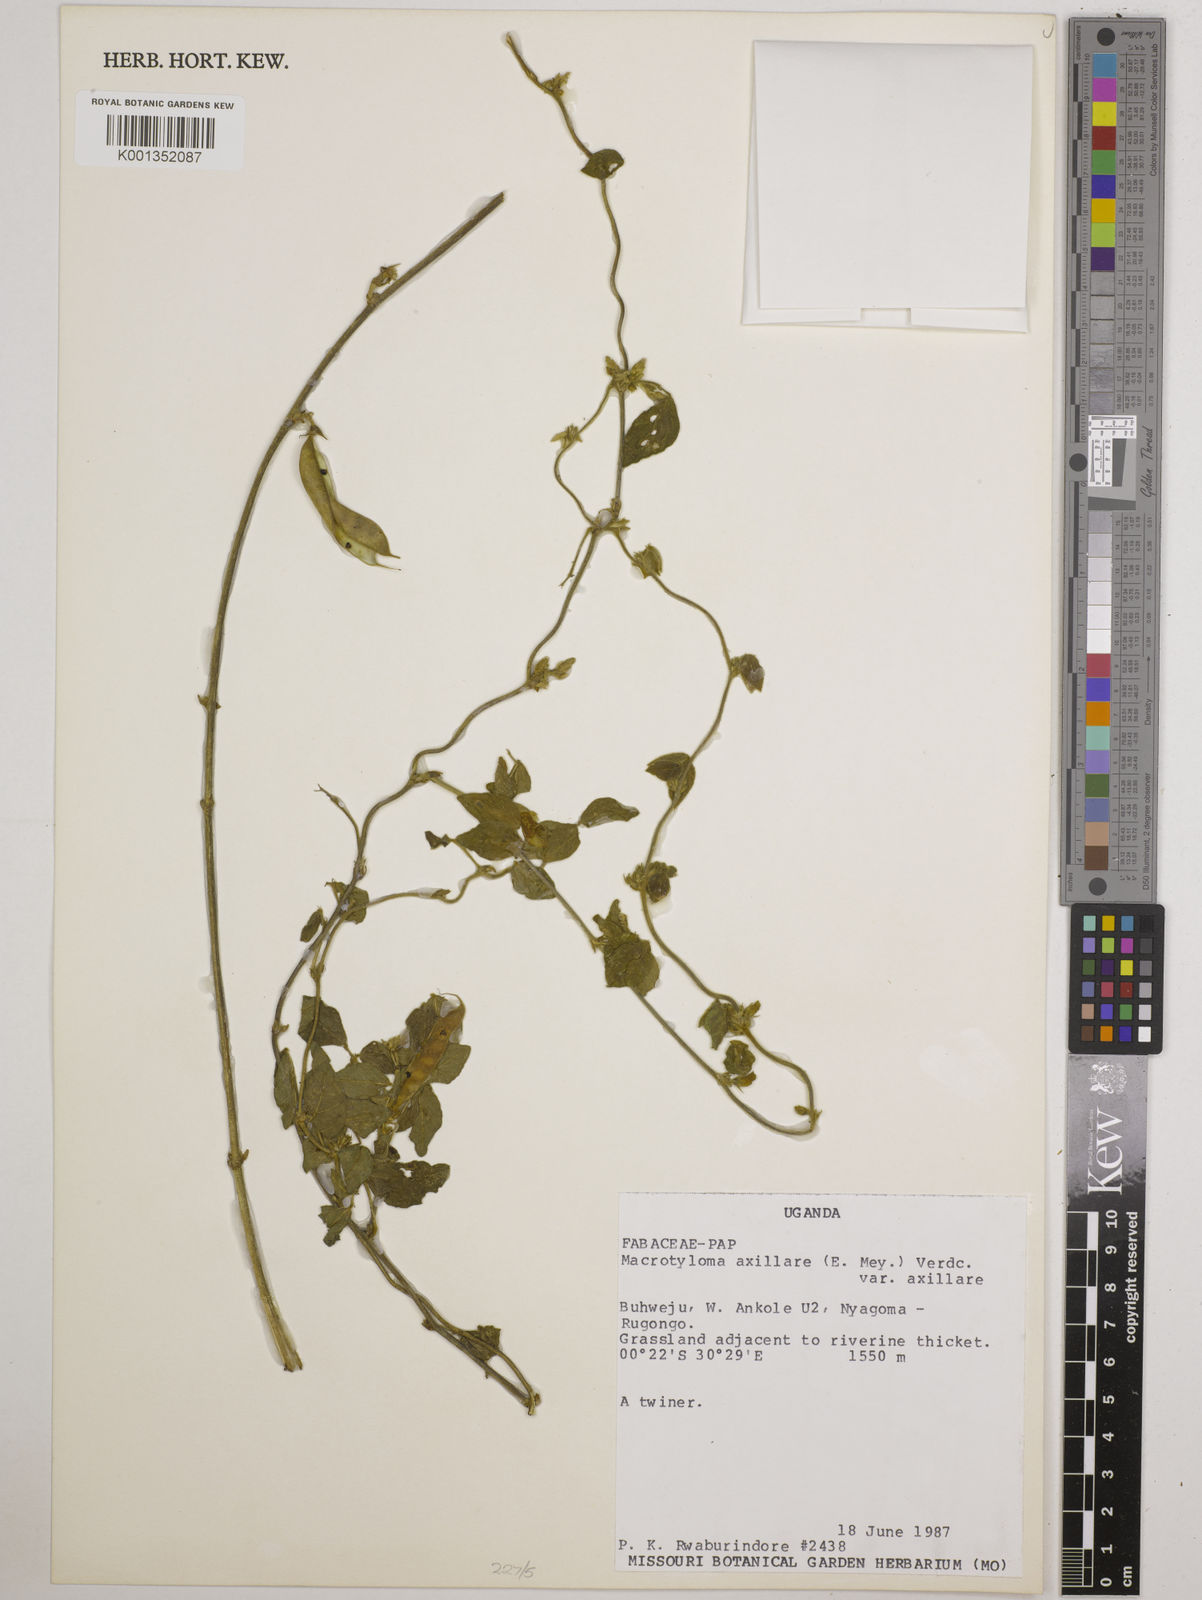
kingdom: Plantae
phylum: Tracheophyta
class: Magnoliopsida
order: Fabales
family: Fabaceae
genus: Macrotyloma
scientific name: Macrotyloma axillare
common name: Perennial horsegram
